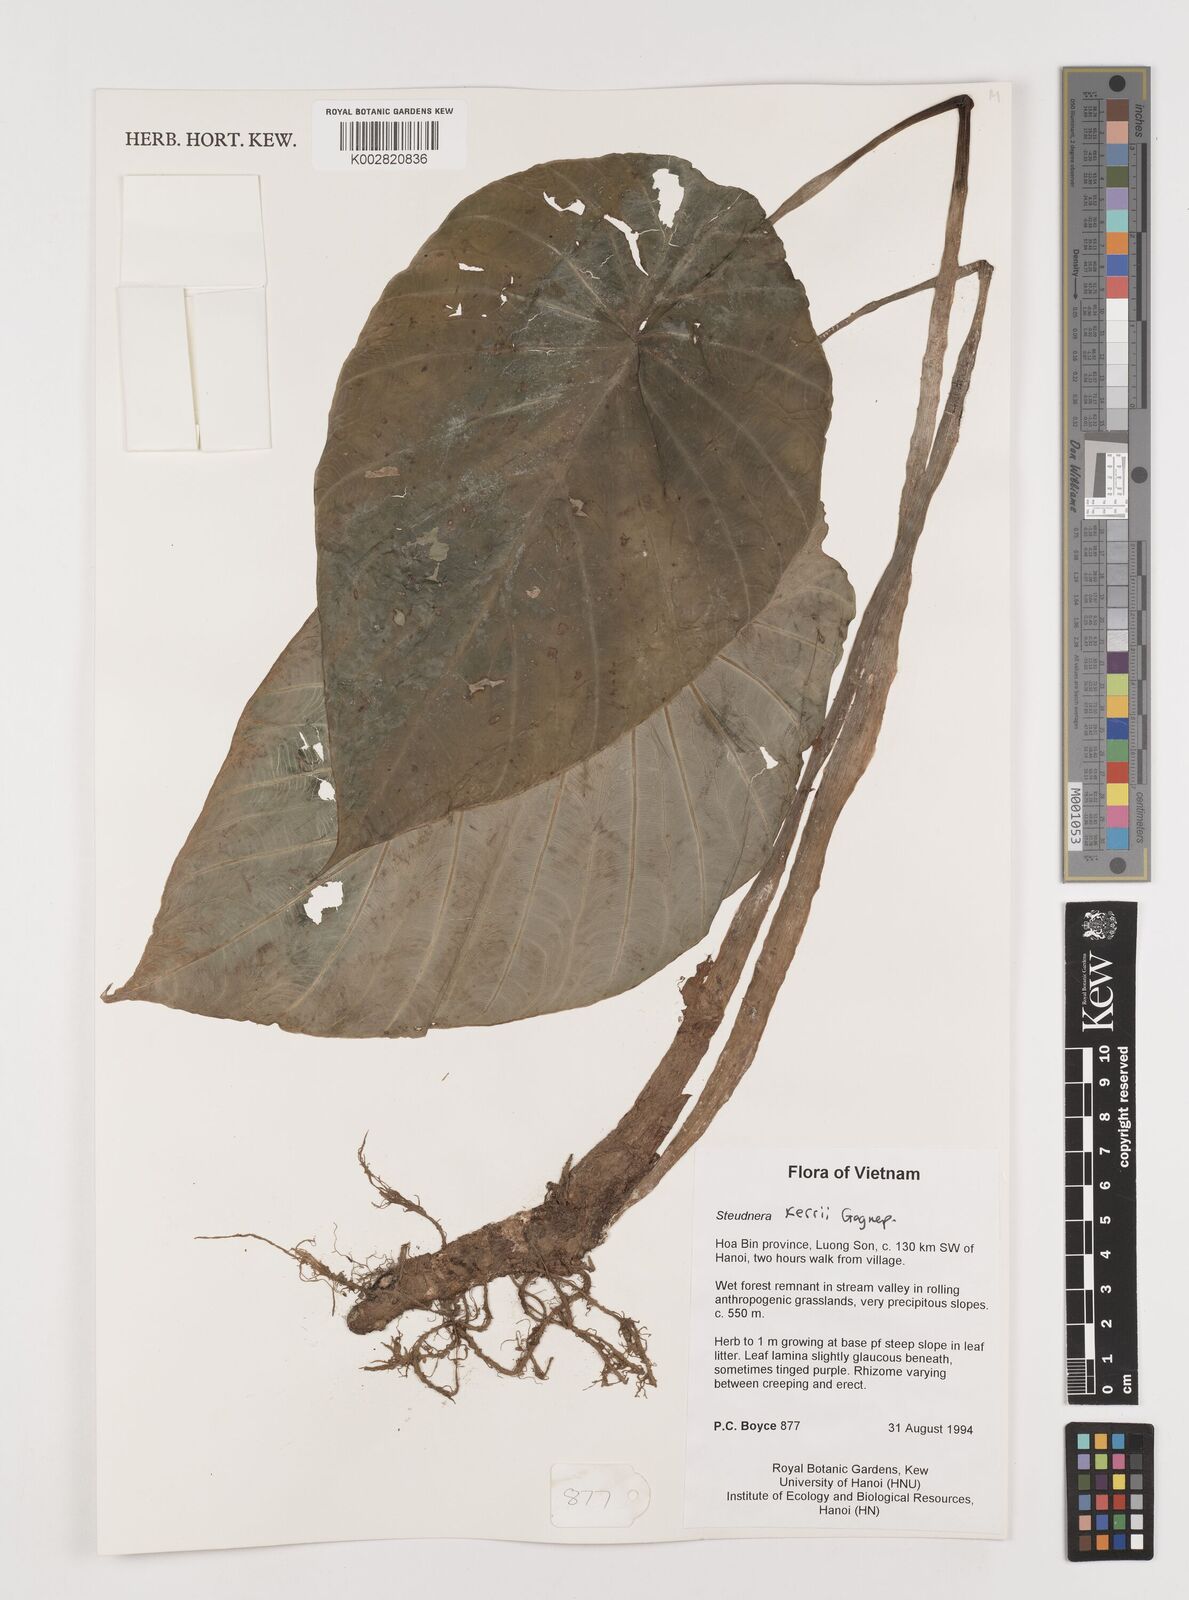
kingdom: Plantae
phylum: Tracheophyta
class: Liliopsida
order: Alismatales
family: Araceae
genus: Steudnera
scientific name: Steudnera kerrii
